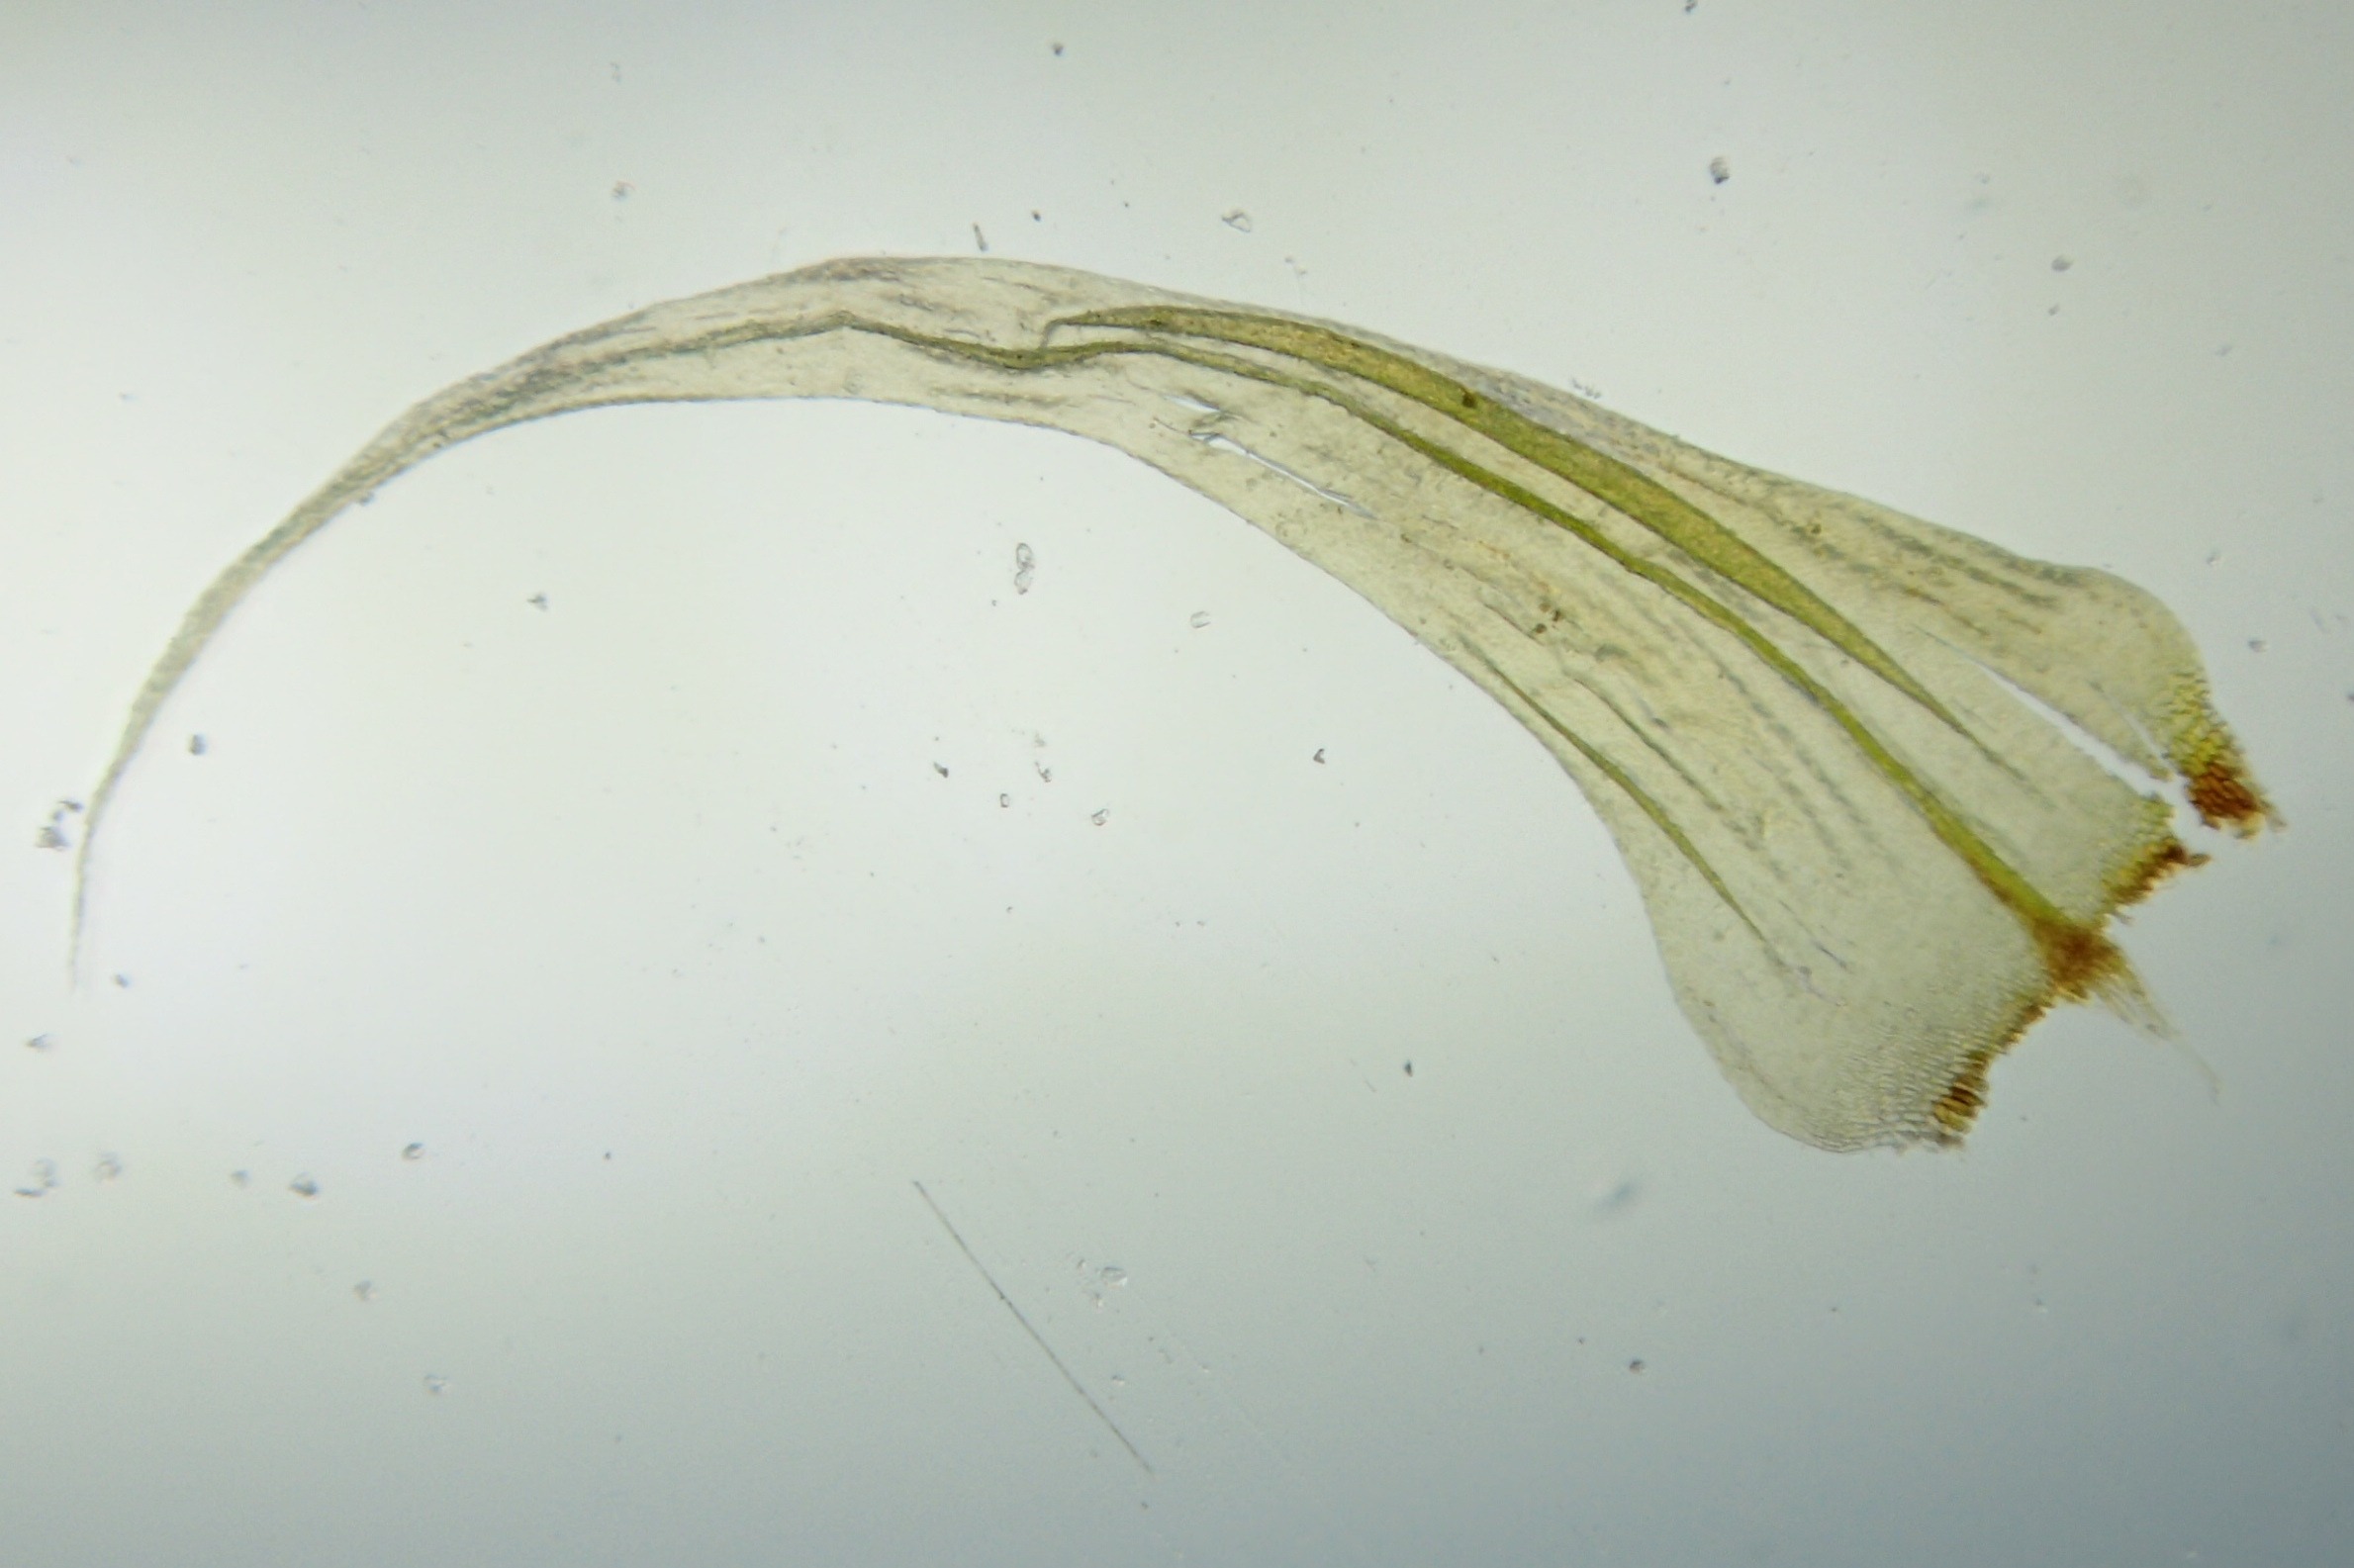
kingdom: Plantae
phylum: Bryophyta
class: Bryopsida
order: Hypnales
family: Scorpidiaceae
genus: Sanionia
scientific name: Sanionia uncinata
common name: Stribet krogblad
